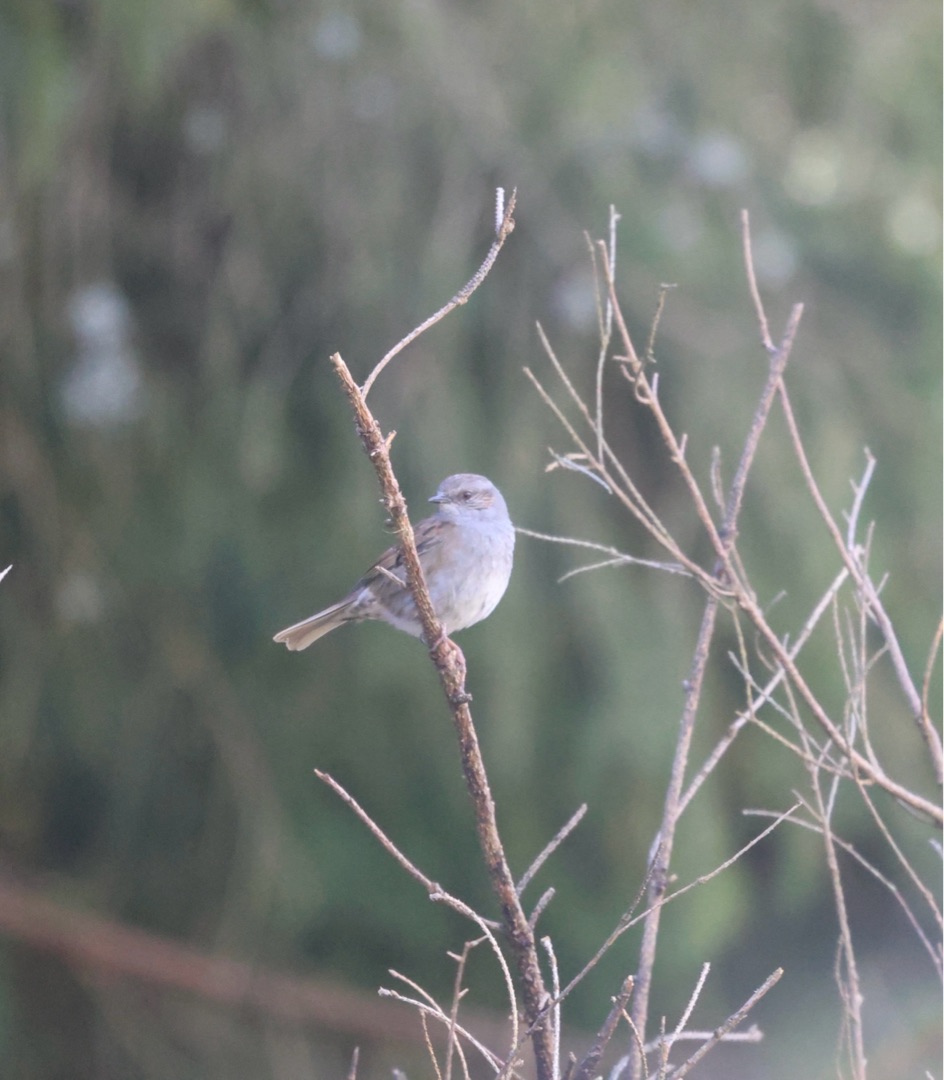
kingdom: Animalia
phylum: Chordata
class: Aves
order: Passeriformes
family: Prunellidae
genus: Prunella
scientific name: Prunella modularis
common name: Jernspurv
